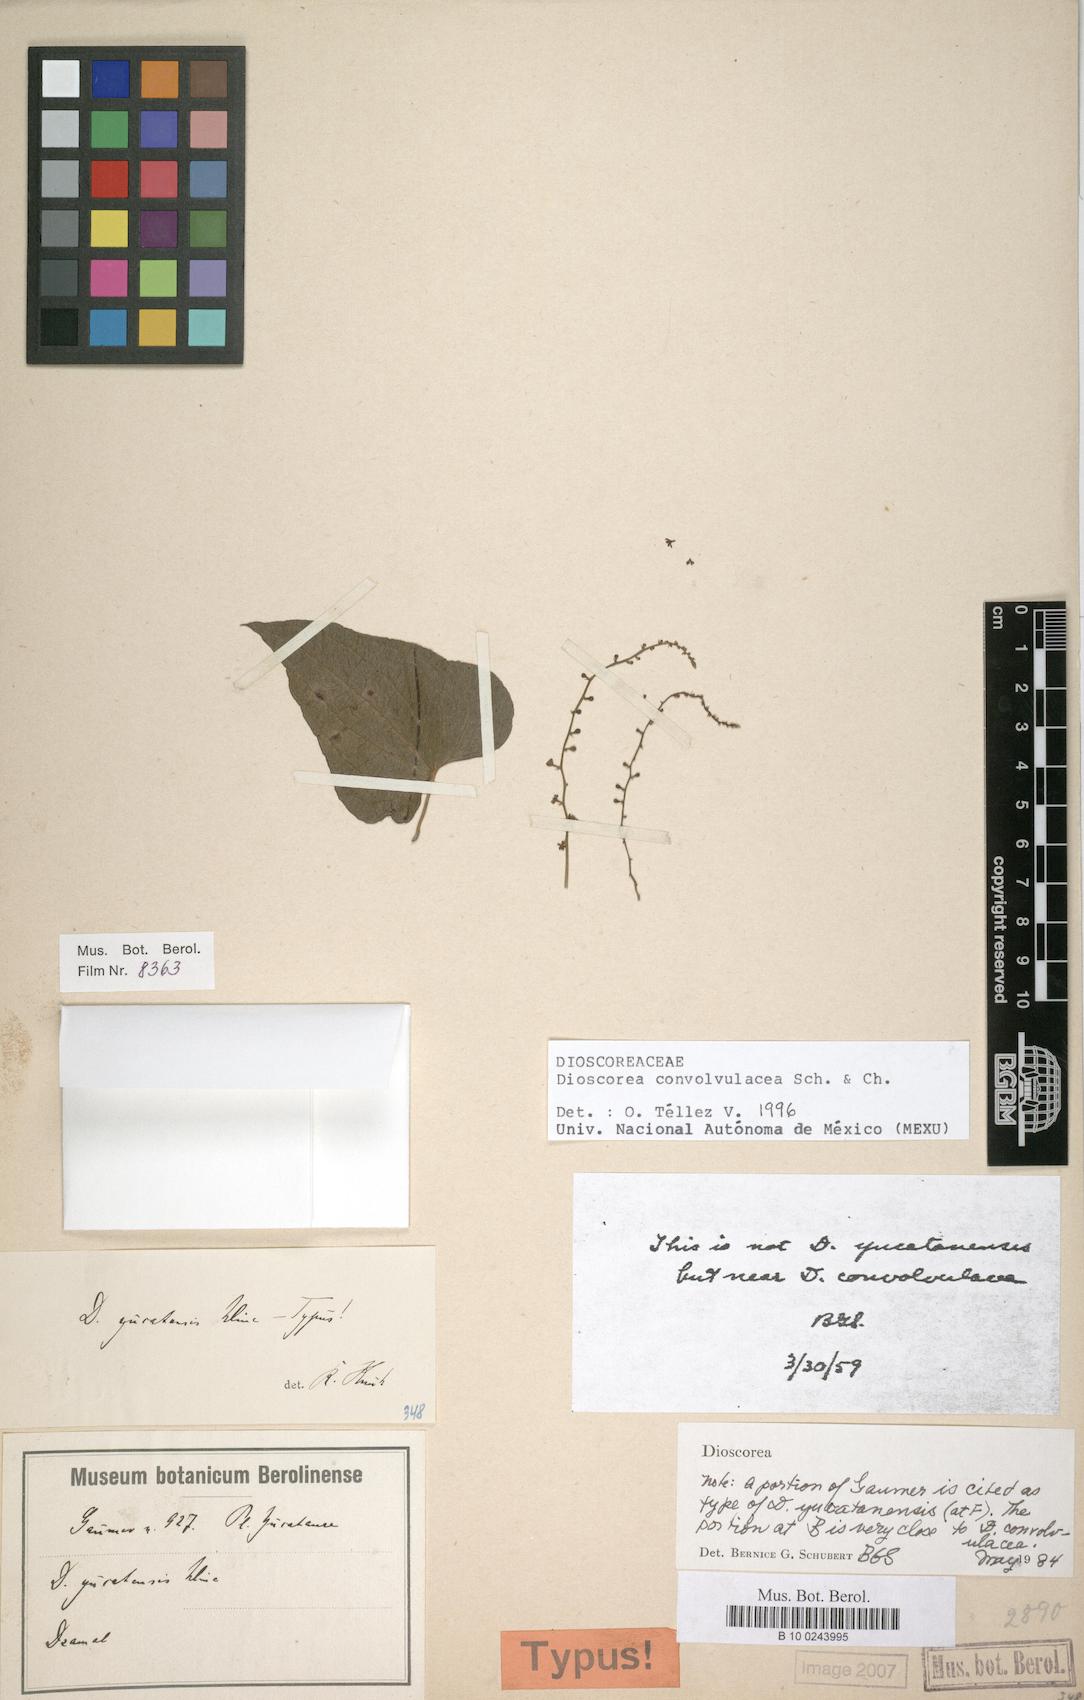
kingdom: Plantae
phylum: Tracheophyta
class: Liliopsida
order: Dioscoreales
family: Dioscoreaceae
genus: Dioscorea
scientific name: Dioscorea convolvulacea
